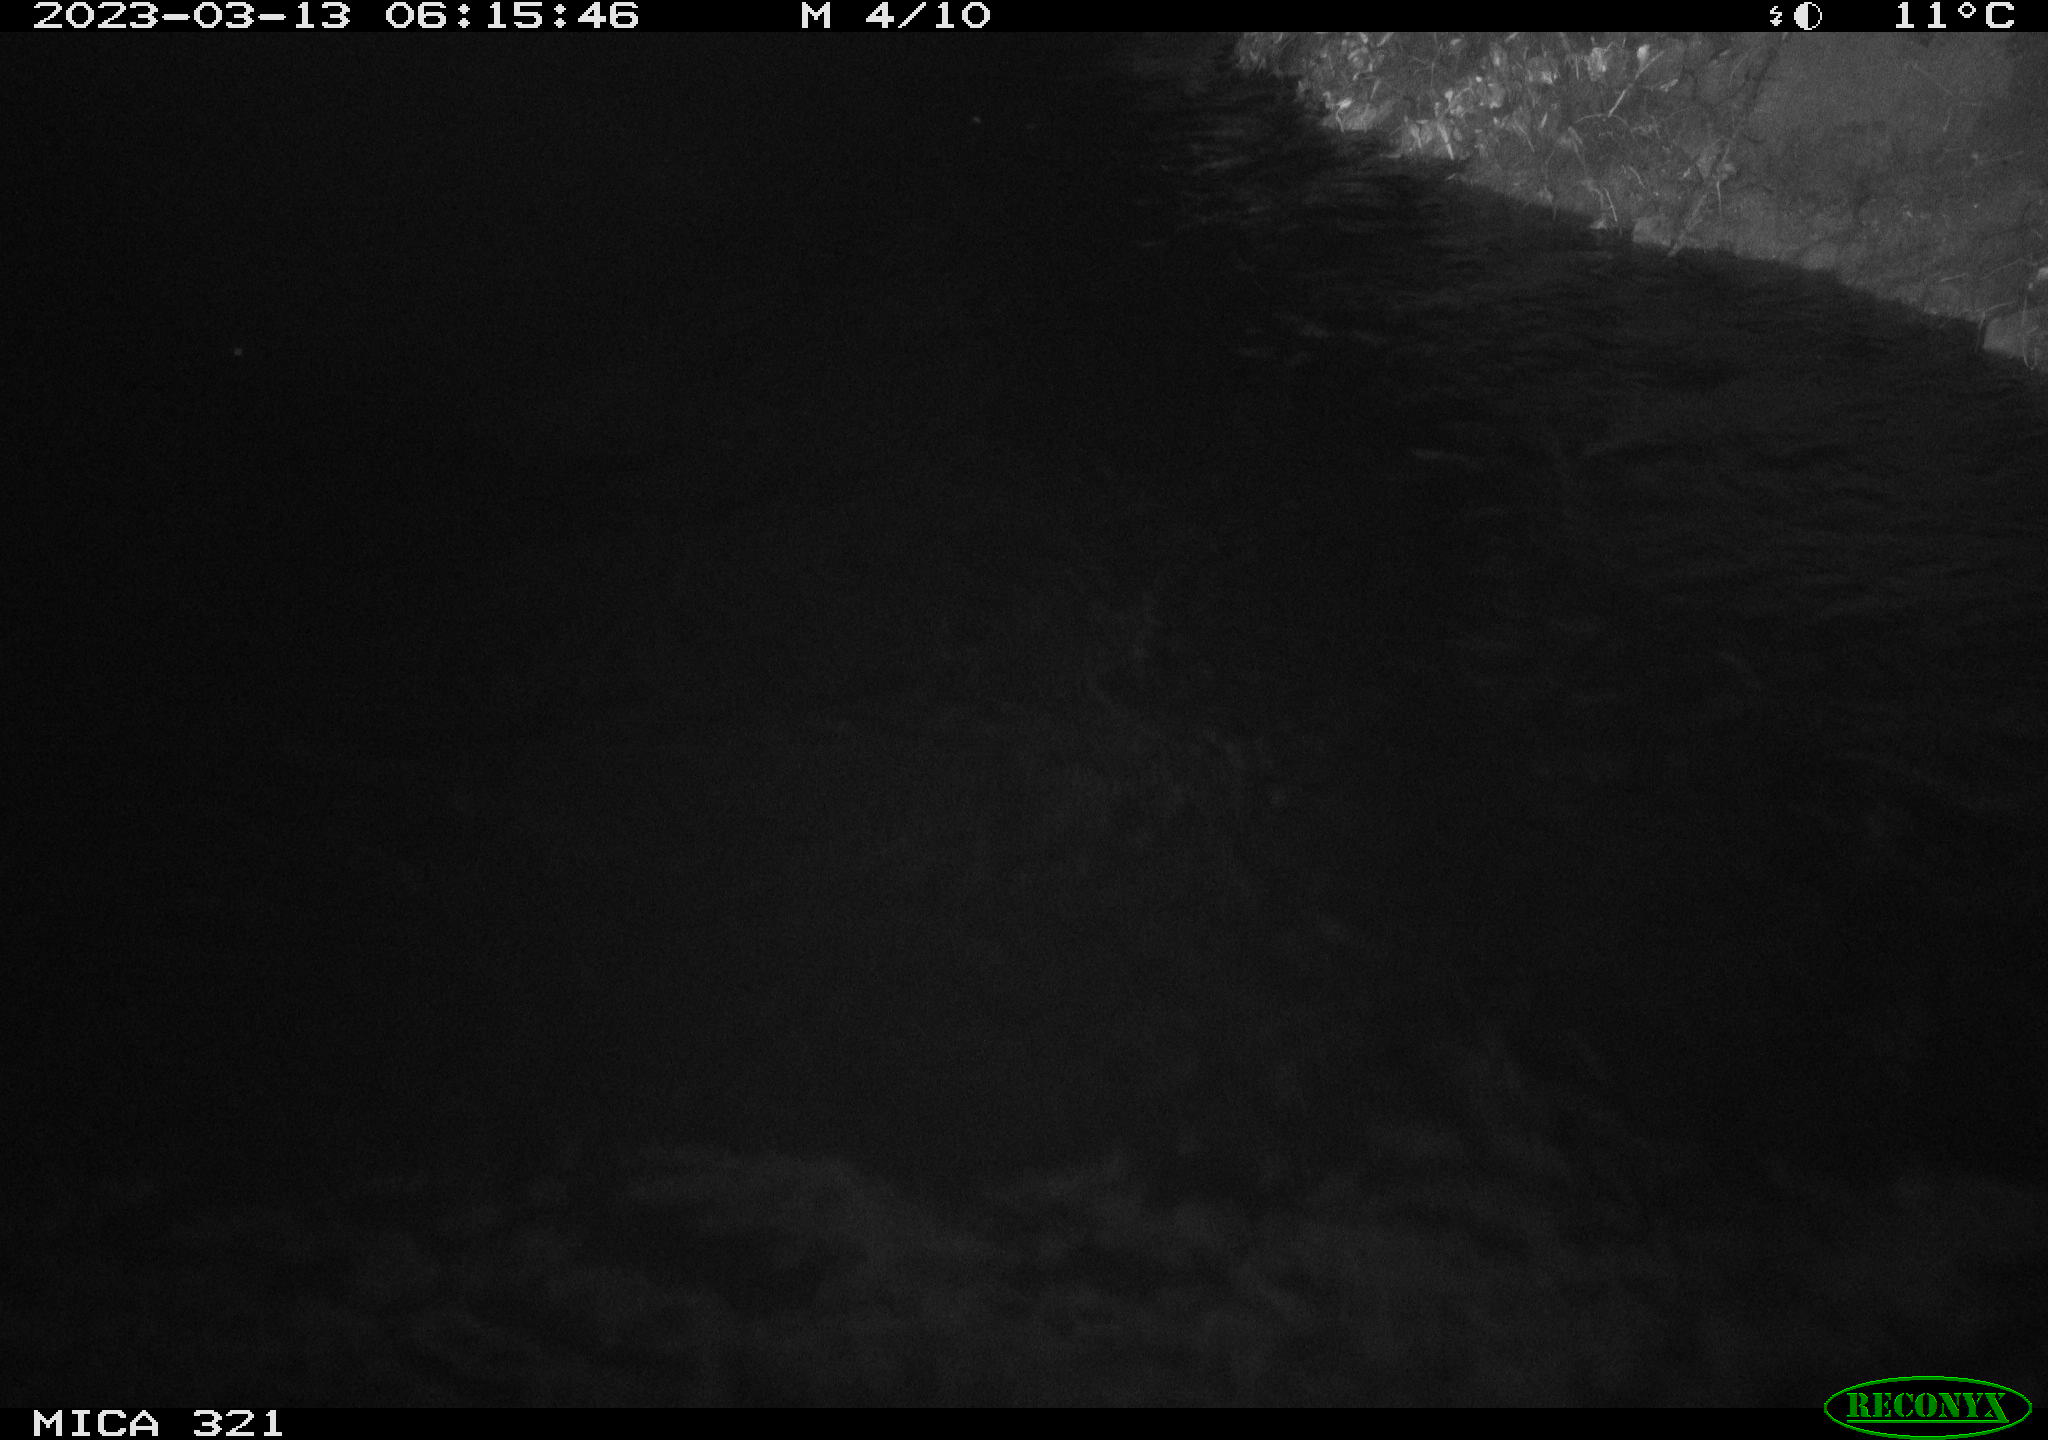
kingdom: Animalia
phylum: Chordata
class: Aves
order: Anseriformes
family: Anatidae
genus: Anas
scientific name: Anas
